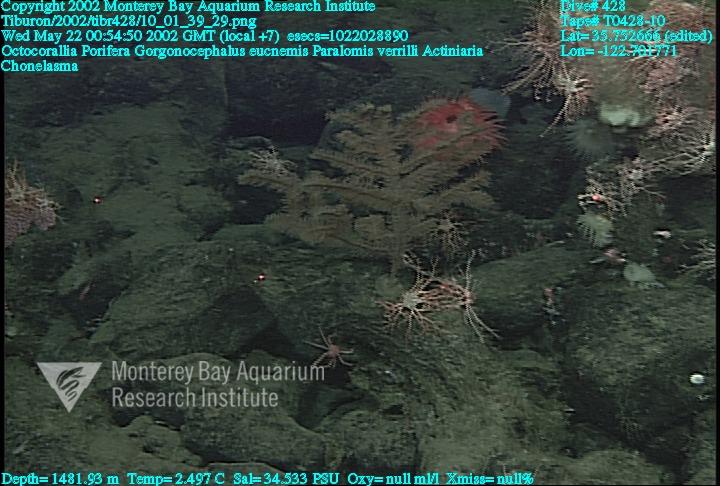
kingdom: Animalia
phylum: Porifera
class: Hexactinellida
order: Sceptrulophora
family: Euretidae
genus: Chonelasma
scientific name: Chonelasma
